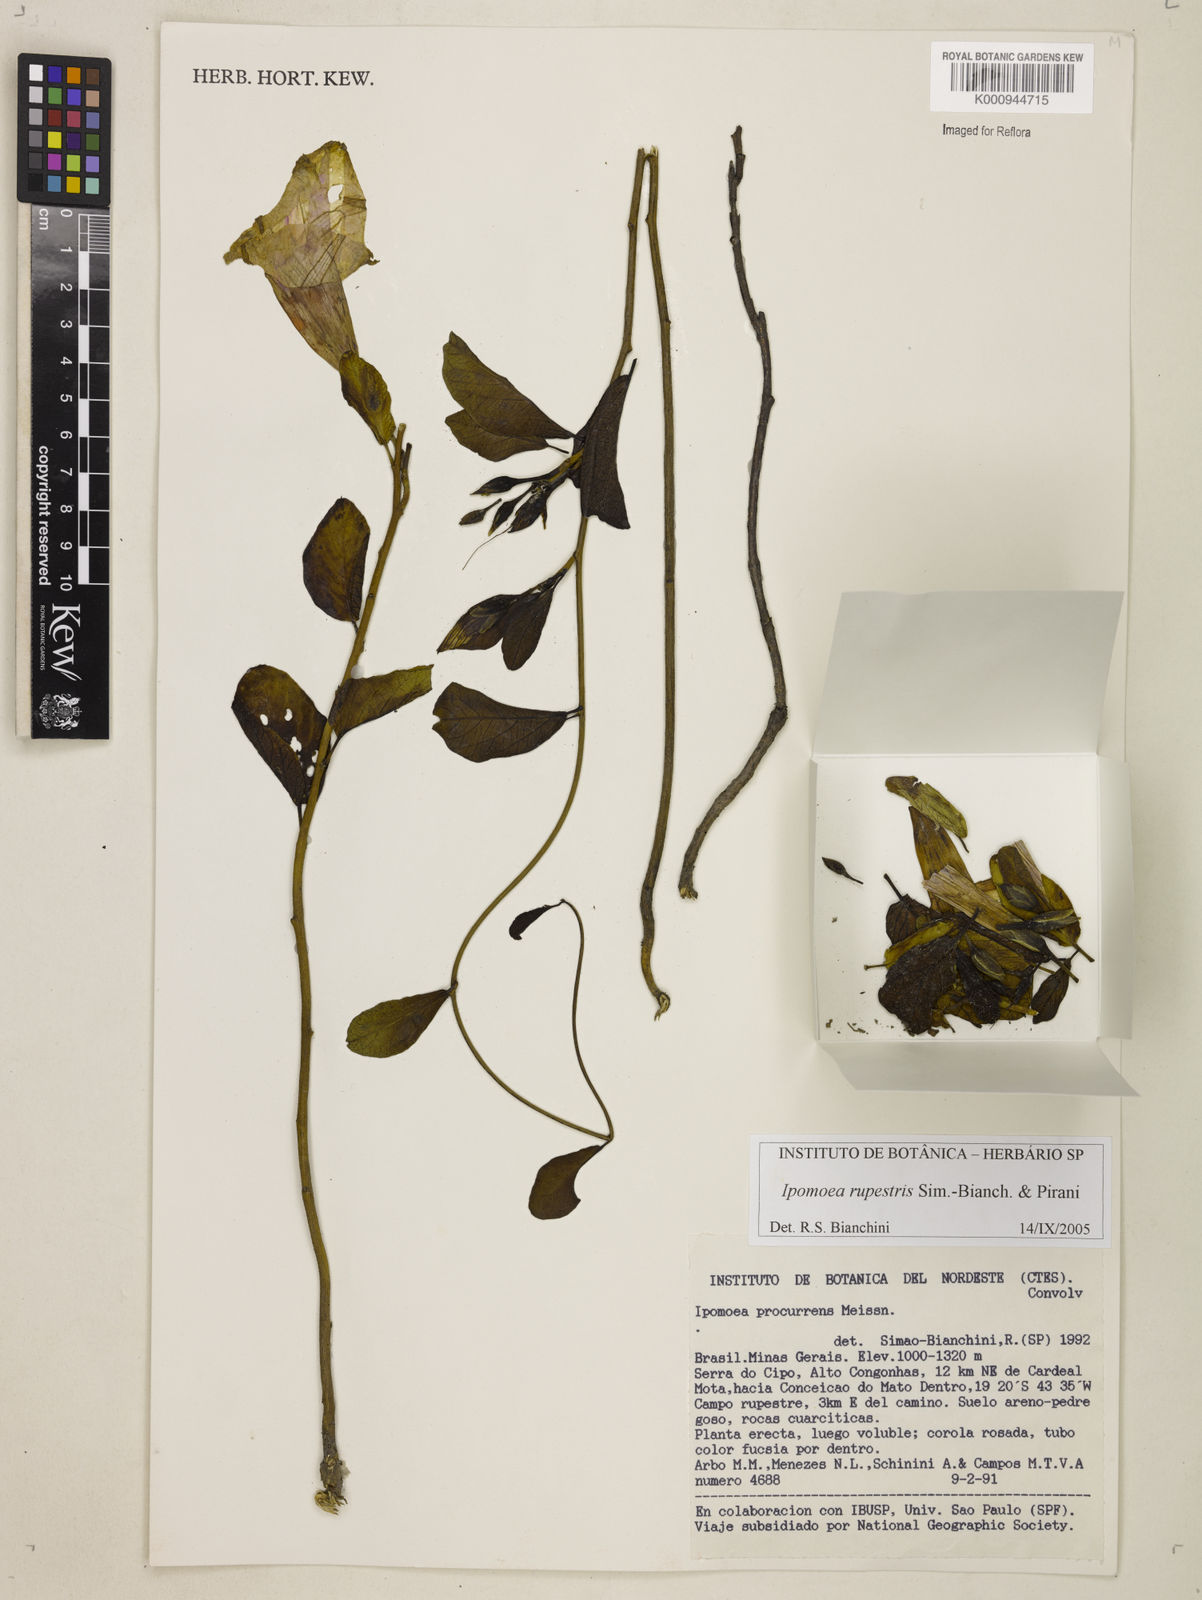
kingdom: Plantae
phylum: Tracheophyta
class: Magnoliopsida
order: Solanales
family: Convolvulaceae
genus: Ipomoea
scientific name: Ipomoea rupestris
